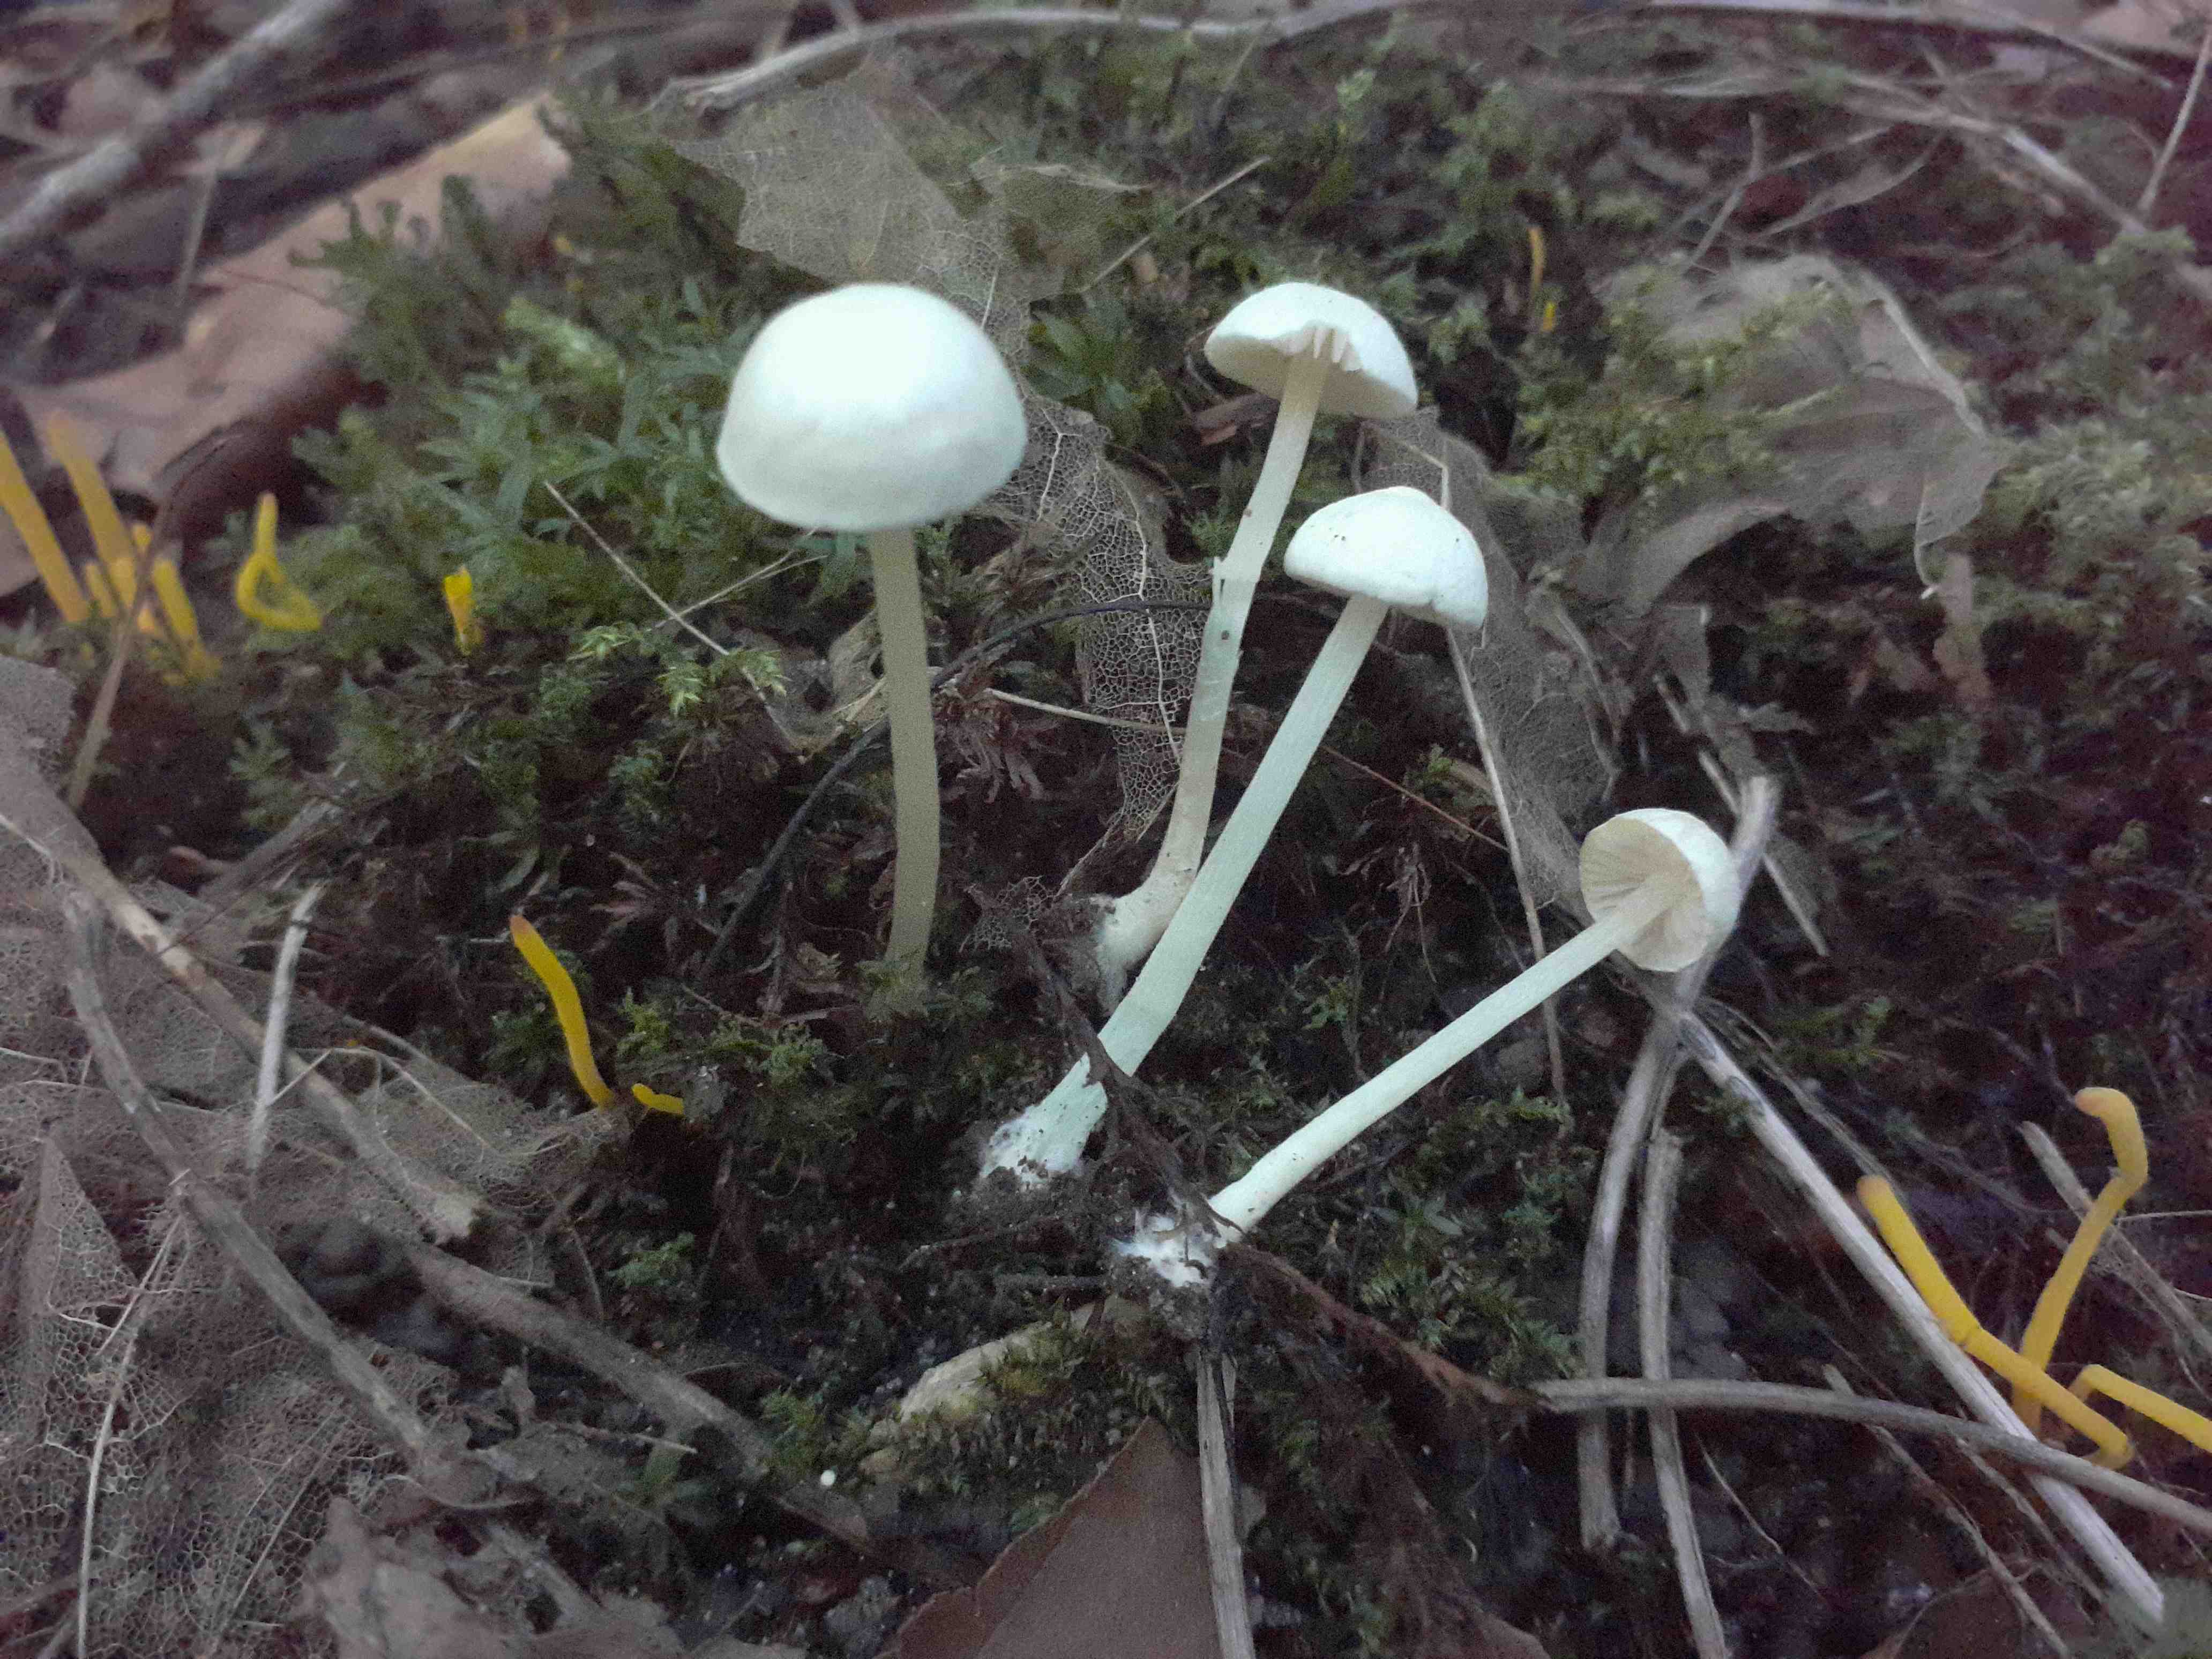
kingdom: Fungi
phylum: Basidiomycota
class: Agaricomycetes
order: Agaricales
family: Entolomataceae
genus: Entoloma
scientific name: Entoloma sericellum
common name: silkehvid rødblad
